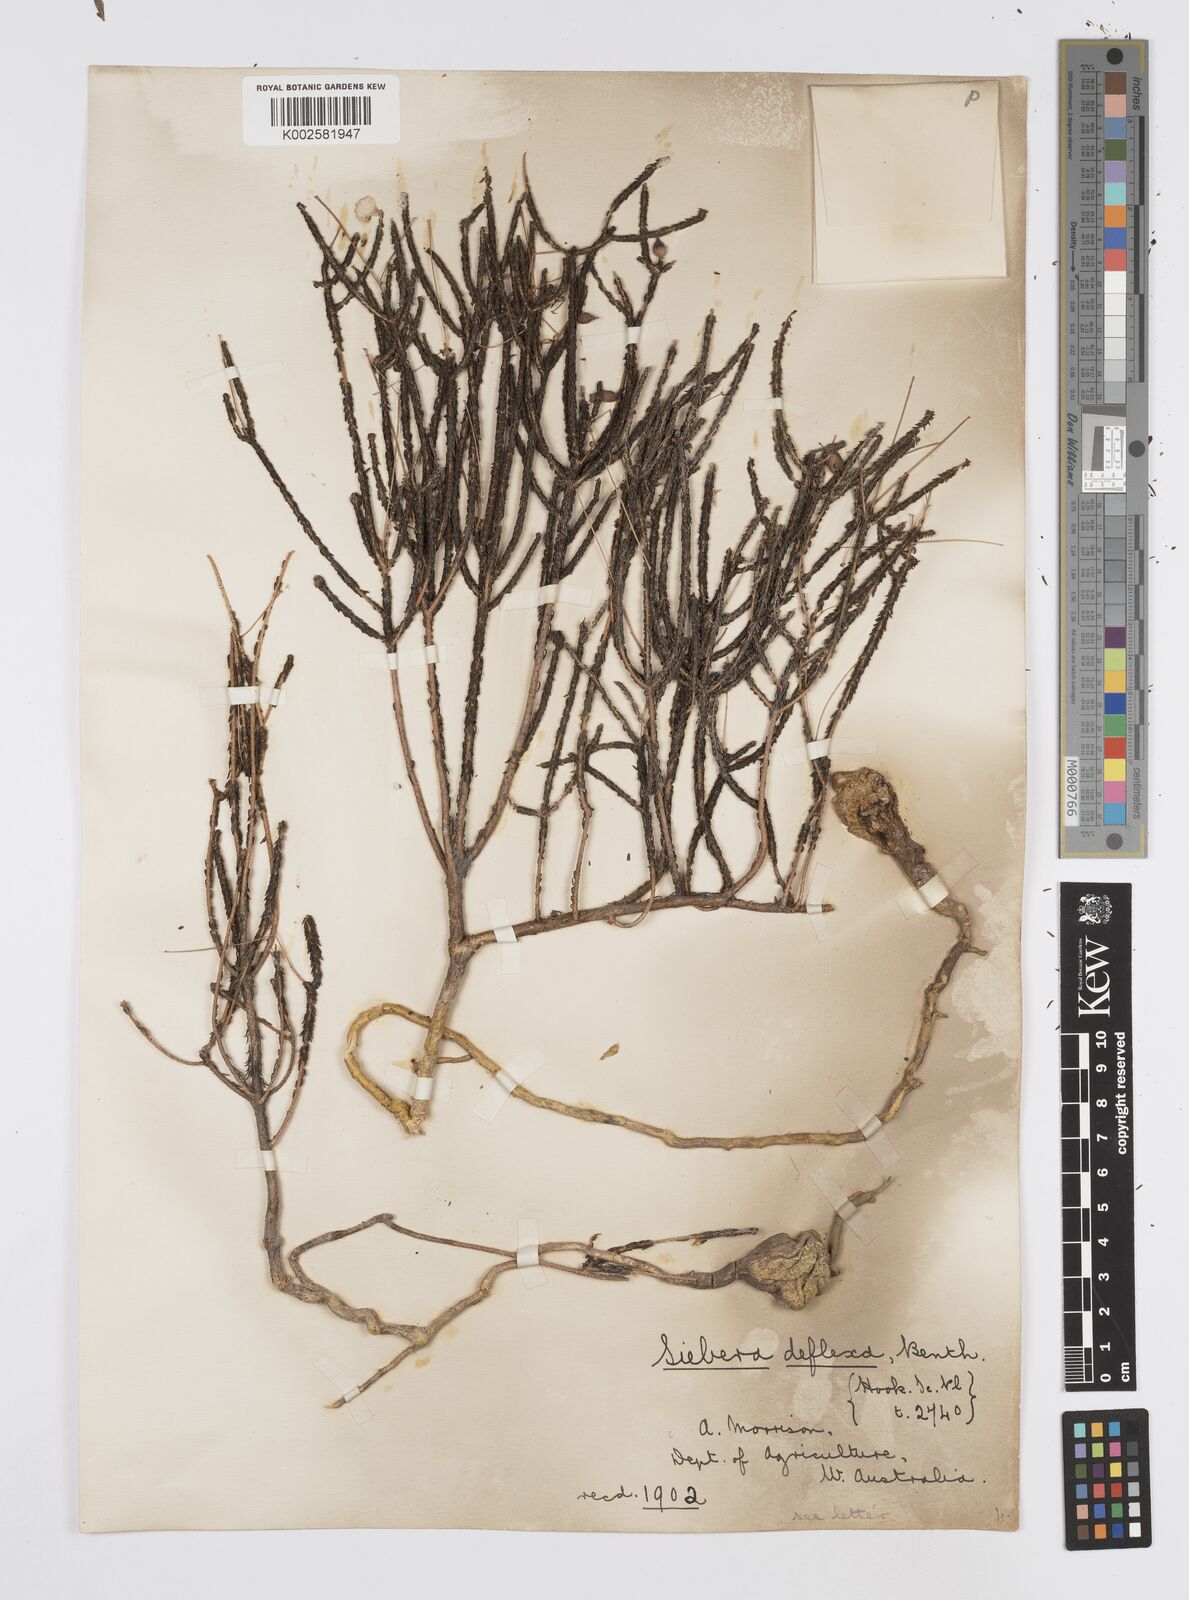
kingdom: Plantae
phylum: Tracheophyta
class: Magnoliopsida
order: Apiales
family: Apiaceae
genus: Platysace
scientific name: Platysace deflexa
